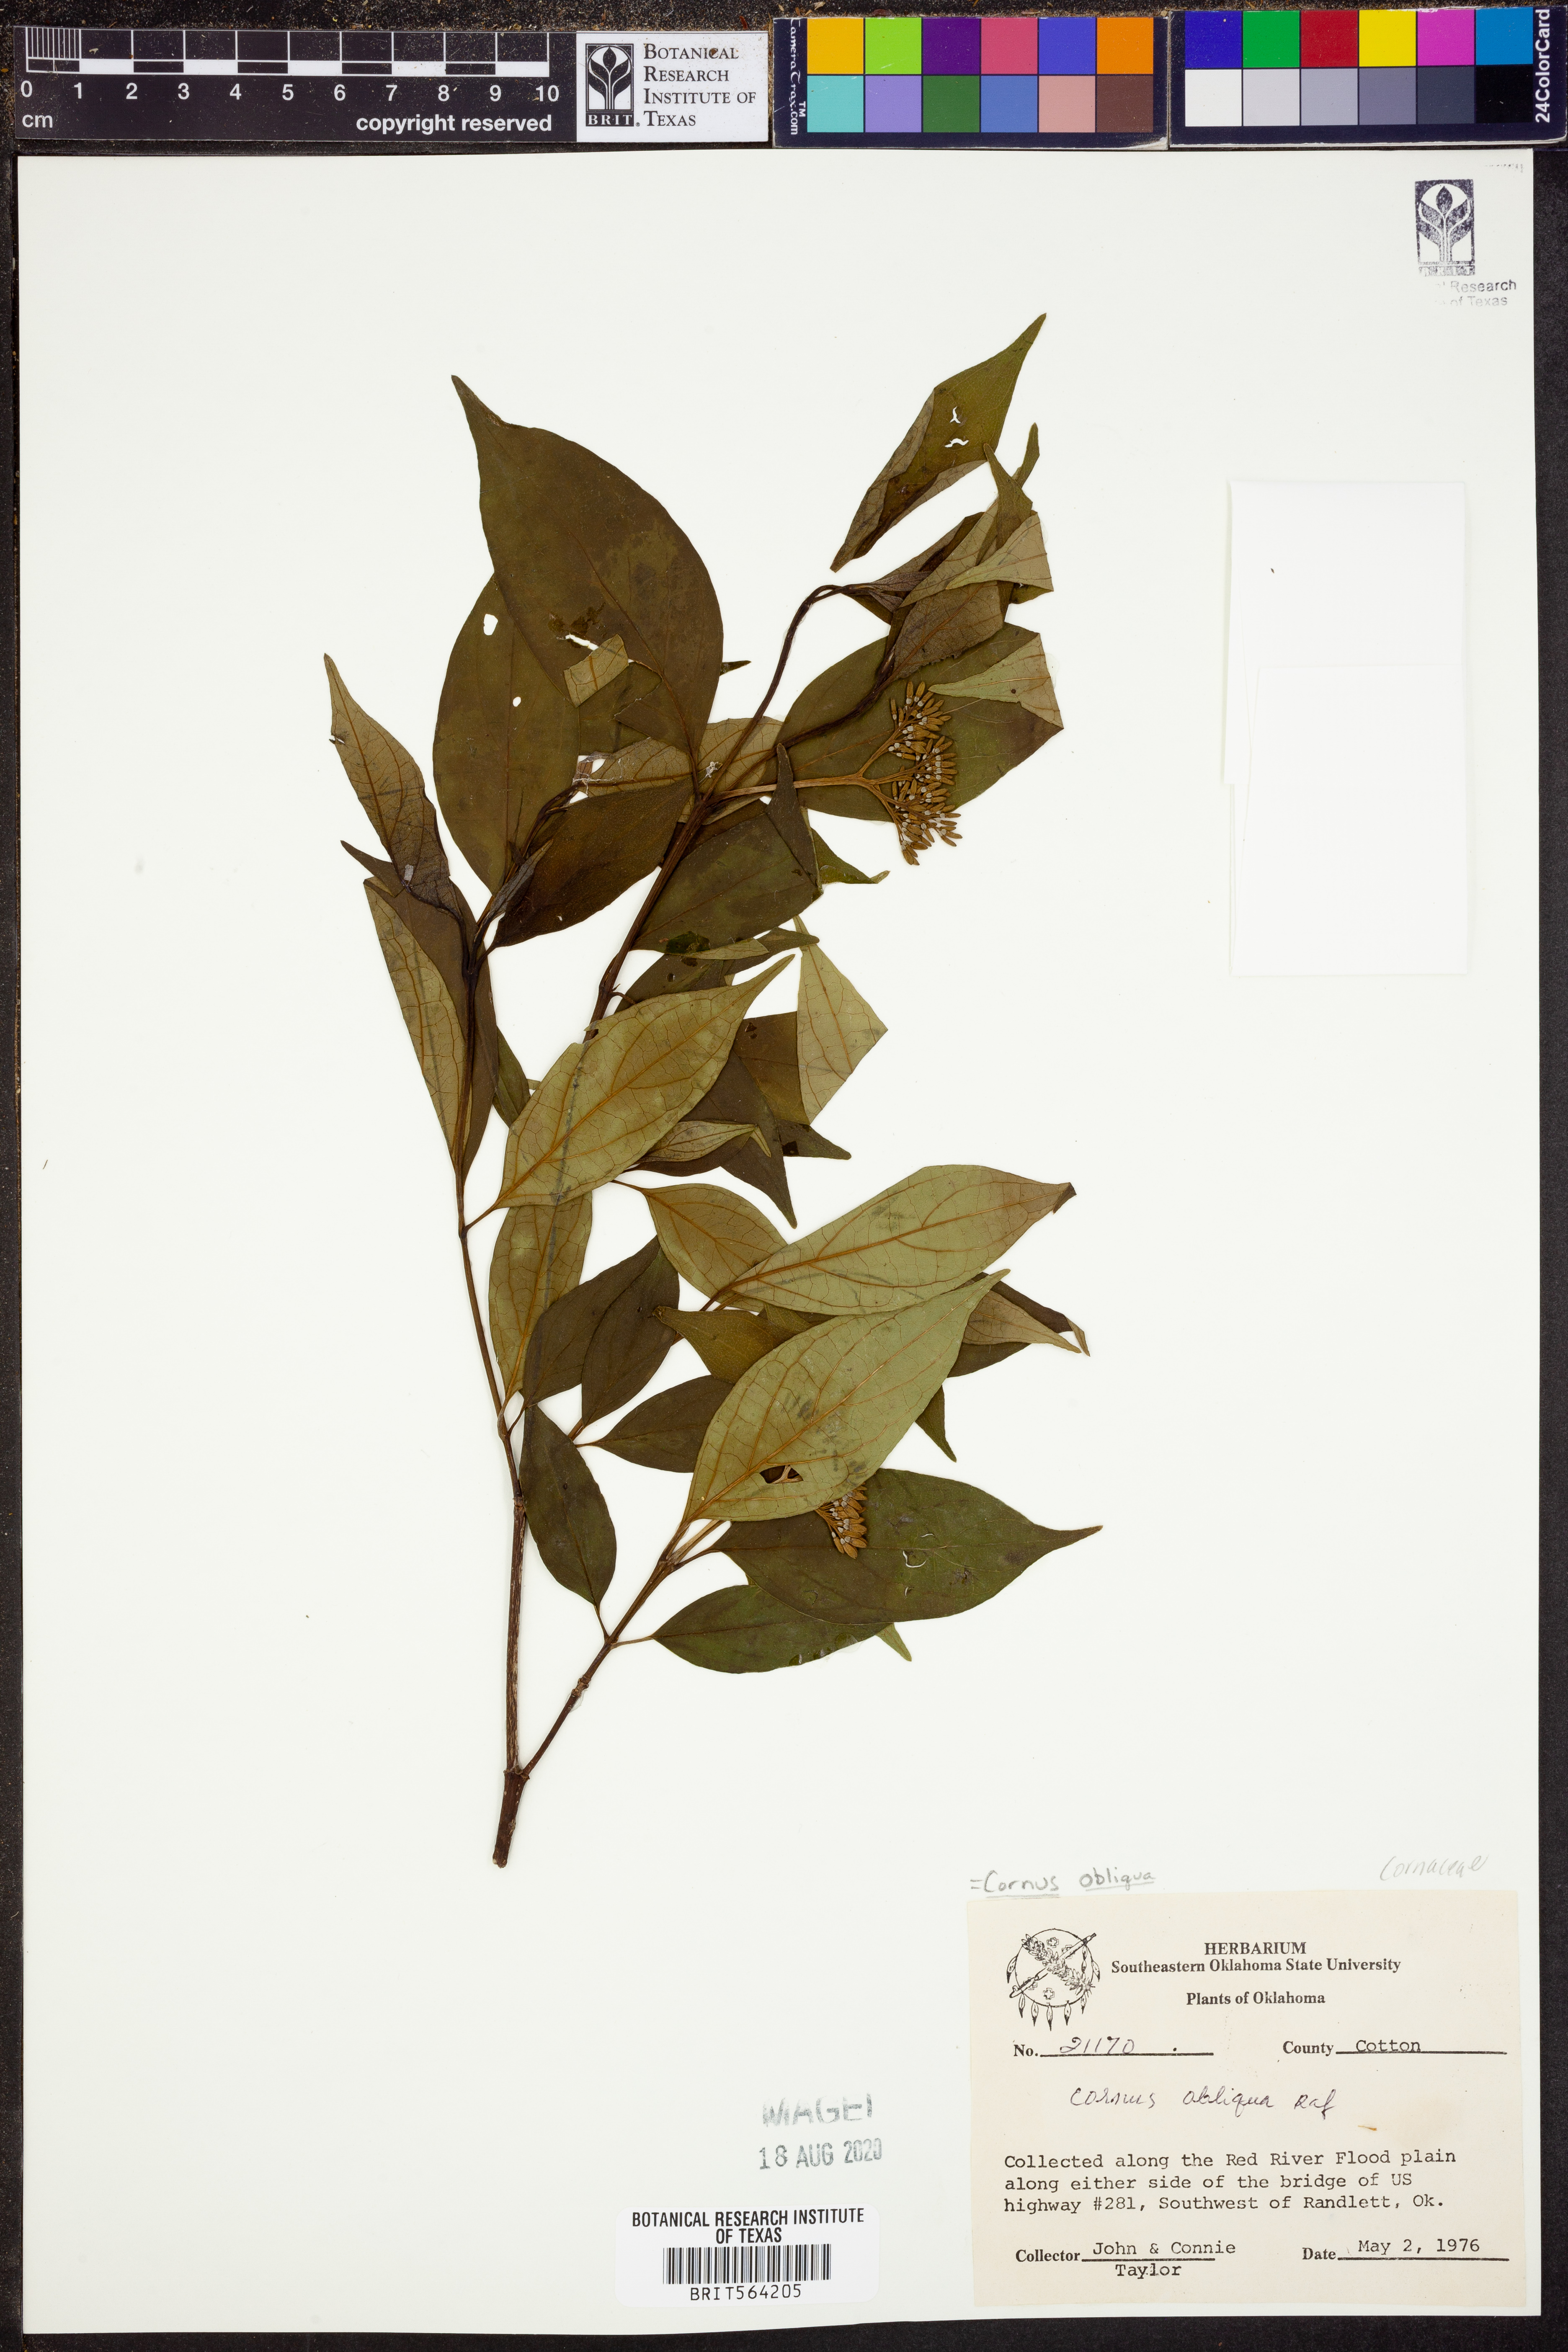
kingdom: Plantae
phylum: Tracheophyta
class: Magnoliopsida
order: Cornales
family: Cornaceae
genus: Cornus
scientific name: Cornus obliqua
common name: Pale dogwood
